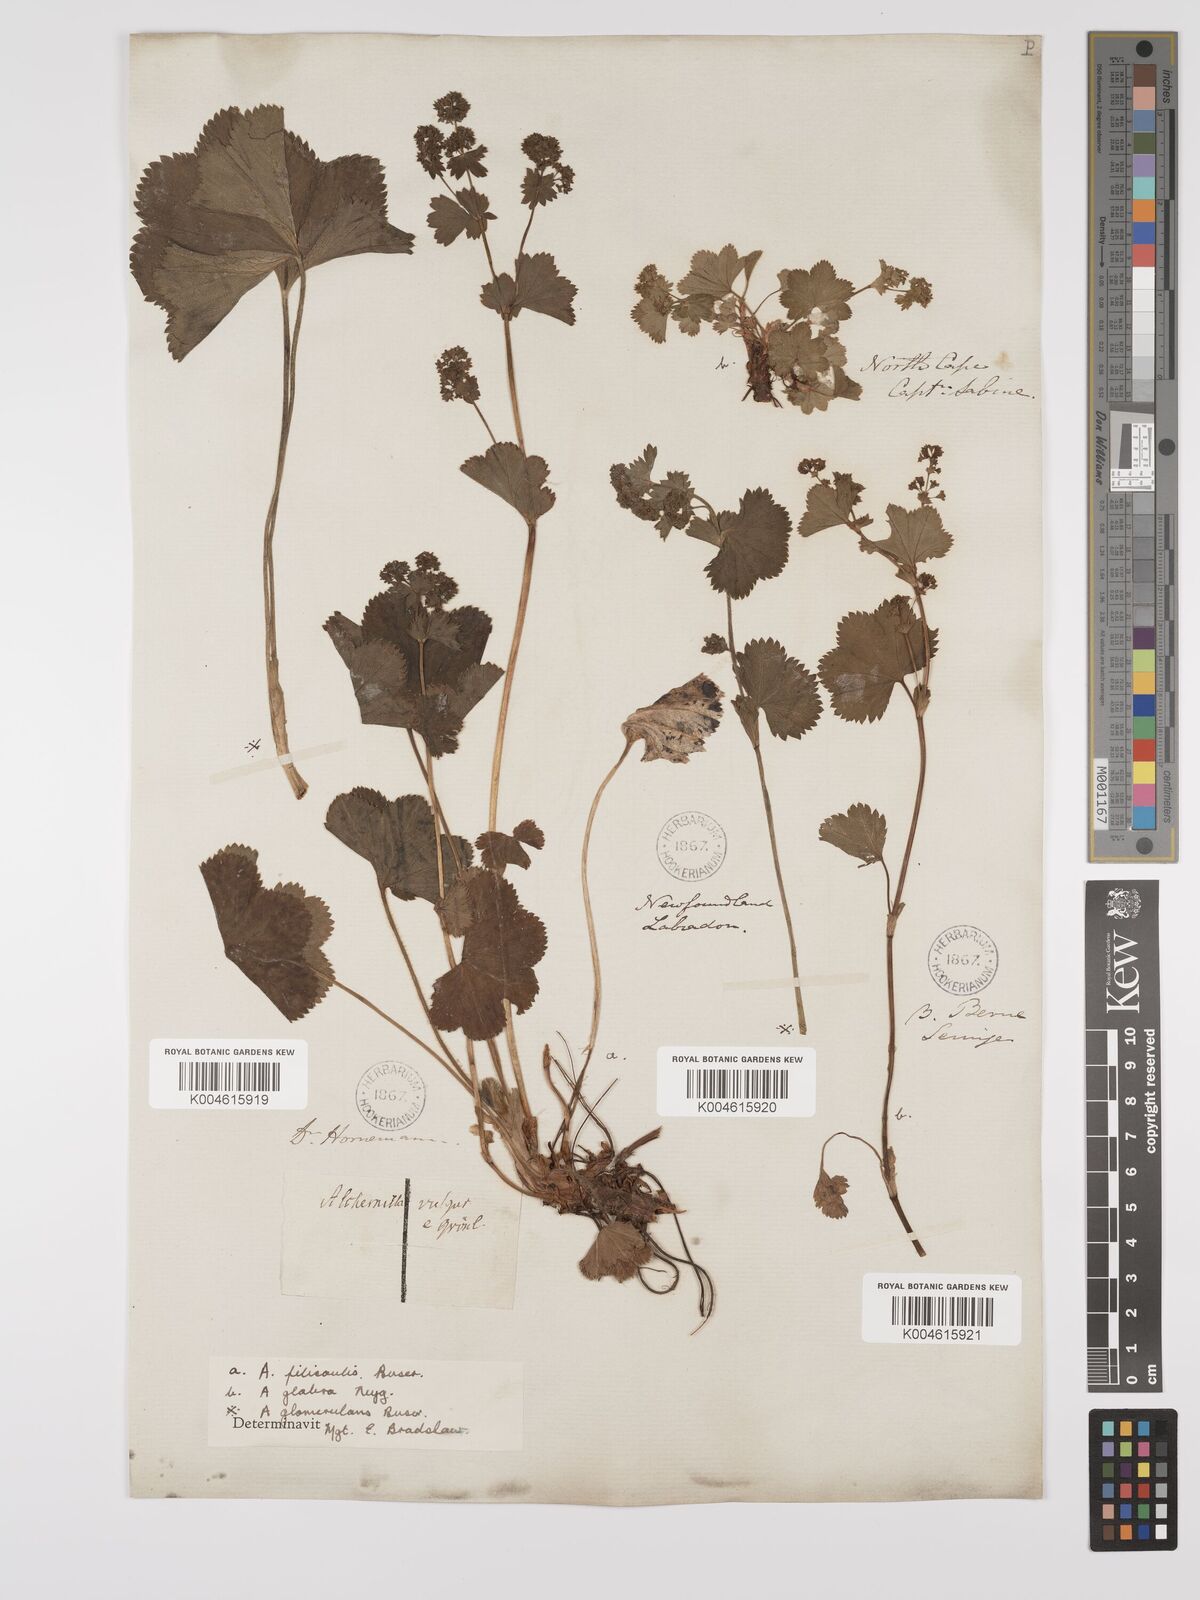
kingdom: Plantae
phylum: Tracheophyta
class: Magnoliopsida
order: Rosales
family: Rosaceae
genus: Alchemilla
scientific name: Alchemilla vulgaris
